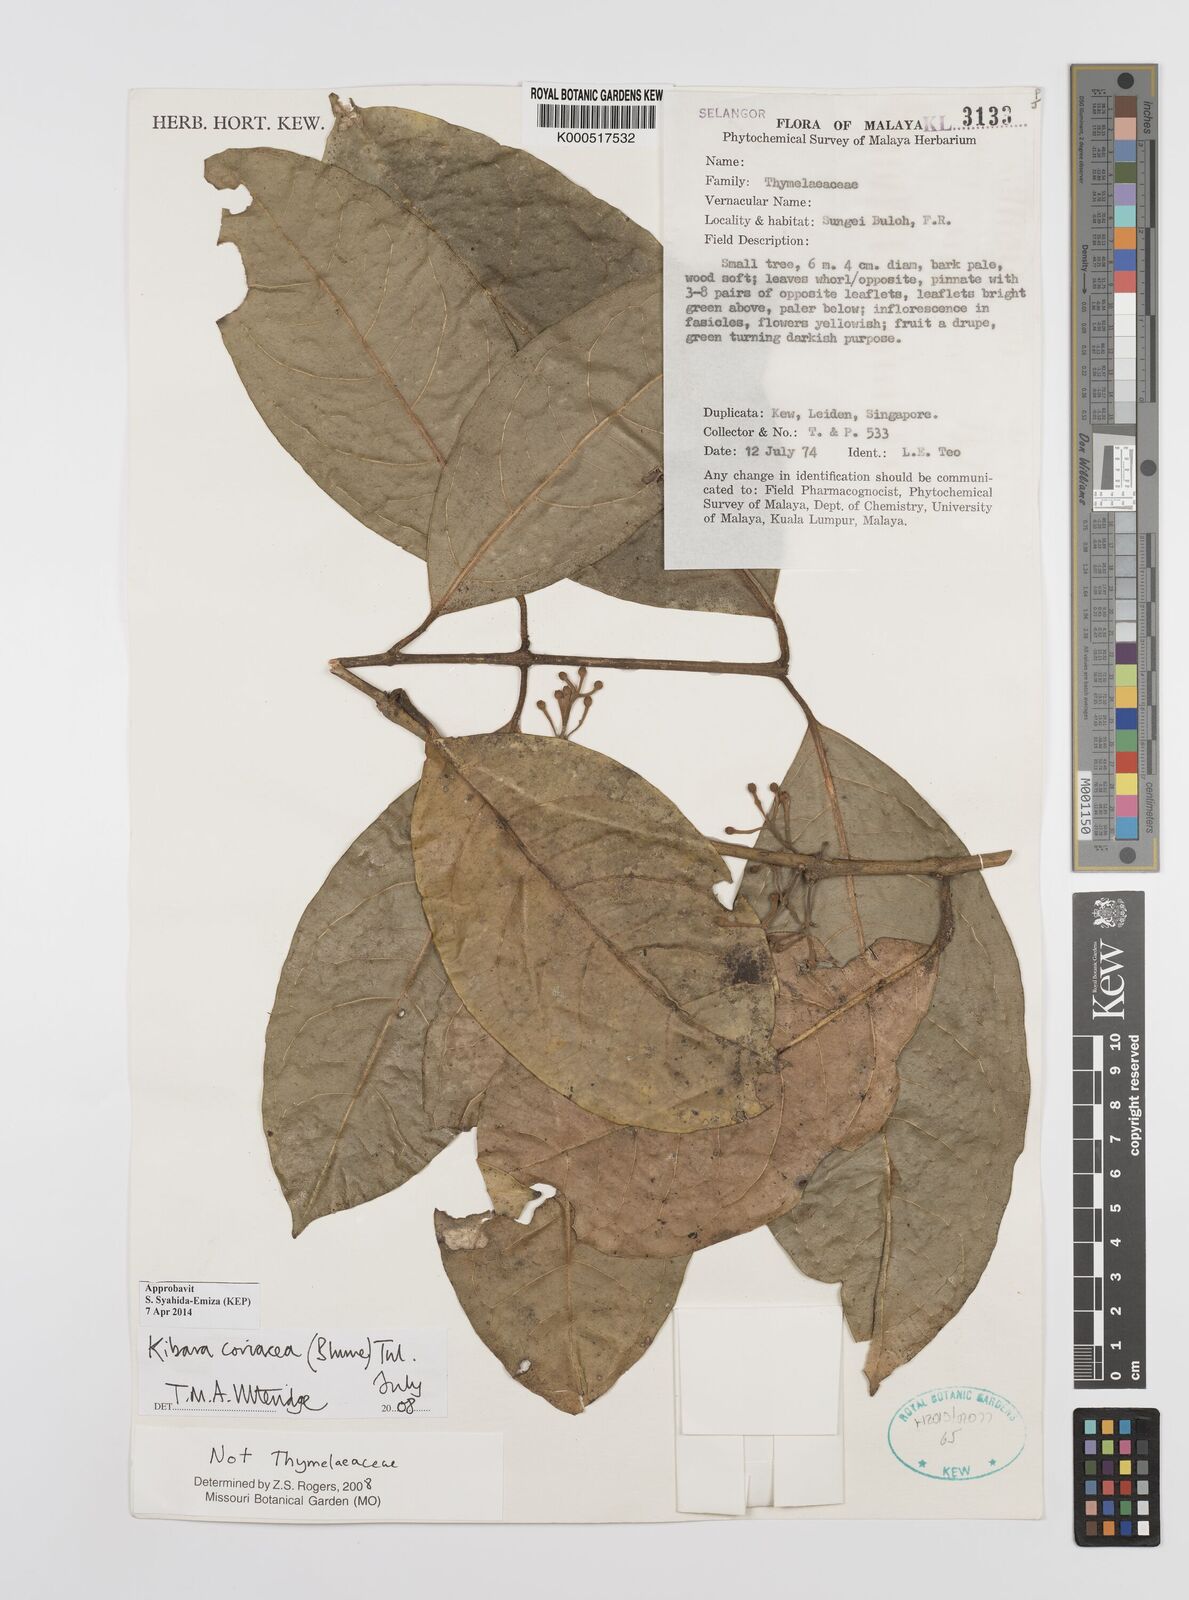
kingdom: Plantae
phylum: Tracheophyta
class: Magnoliopsida
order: Laurales
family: Monimiaceae
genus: Kibara
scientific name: Kibara
